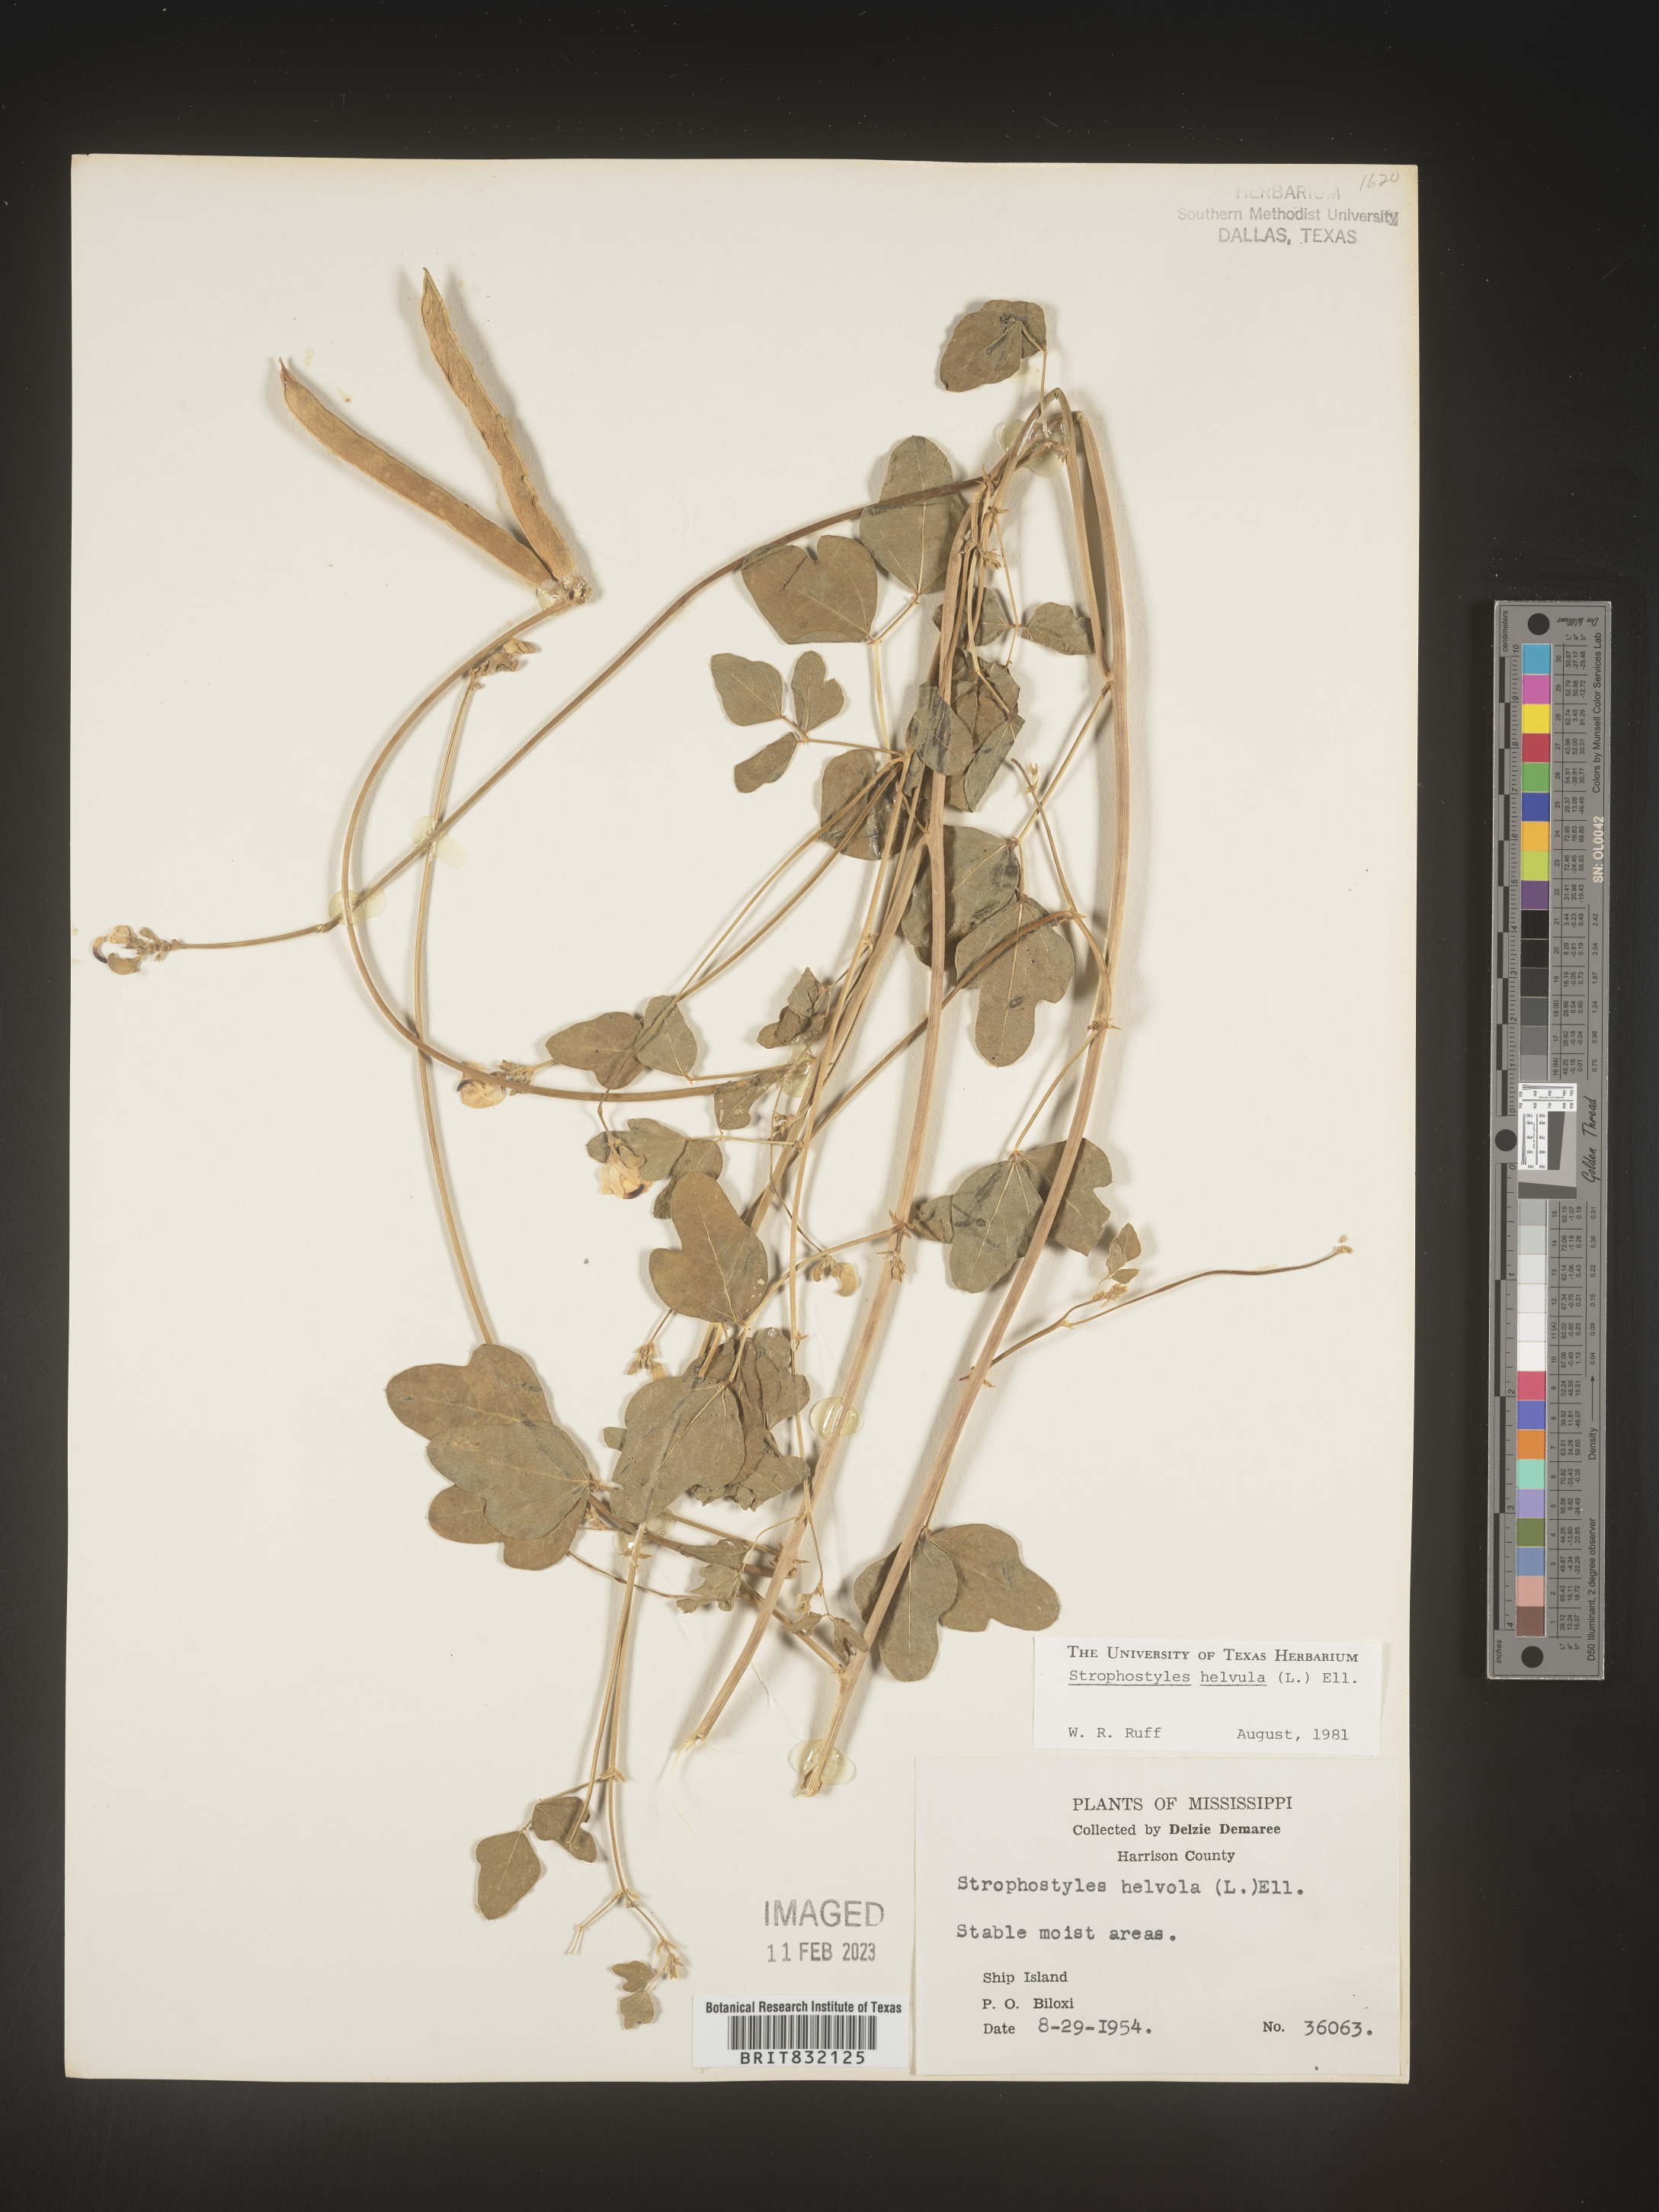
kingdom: Plantae
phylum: Tracheophyta
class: Magnoliopsida
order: Fabales
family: Fabaceae
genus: Strophostyles
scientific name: Strophostyles helvola
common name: Trailing wild bean
